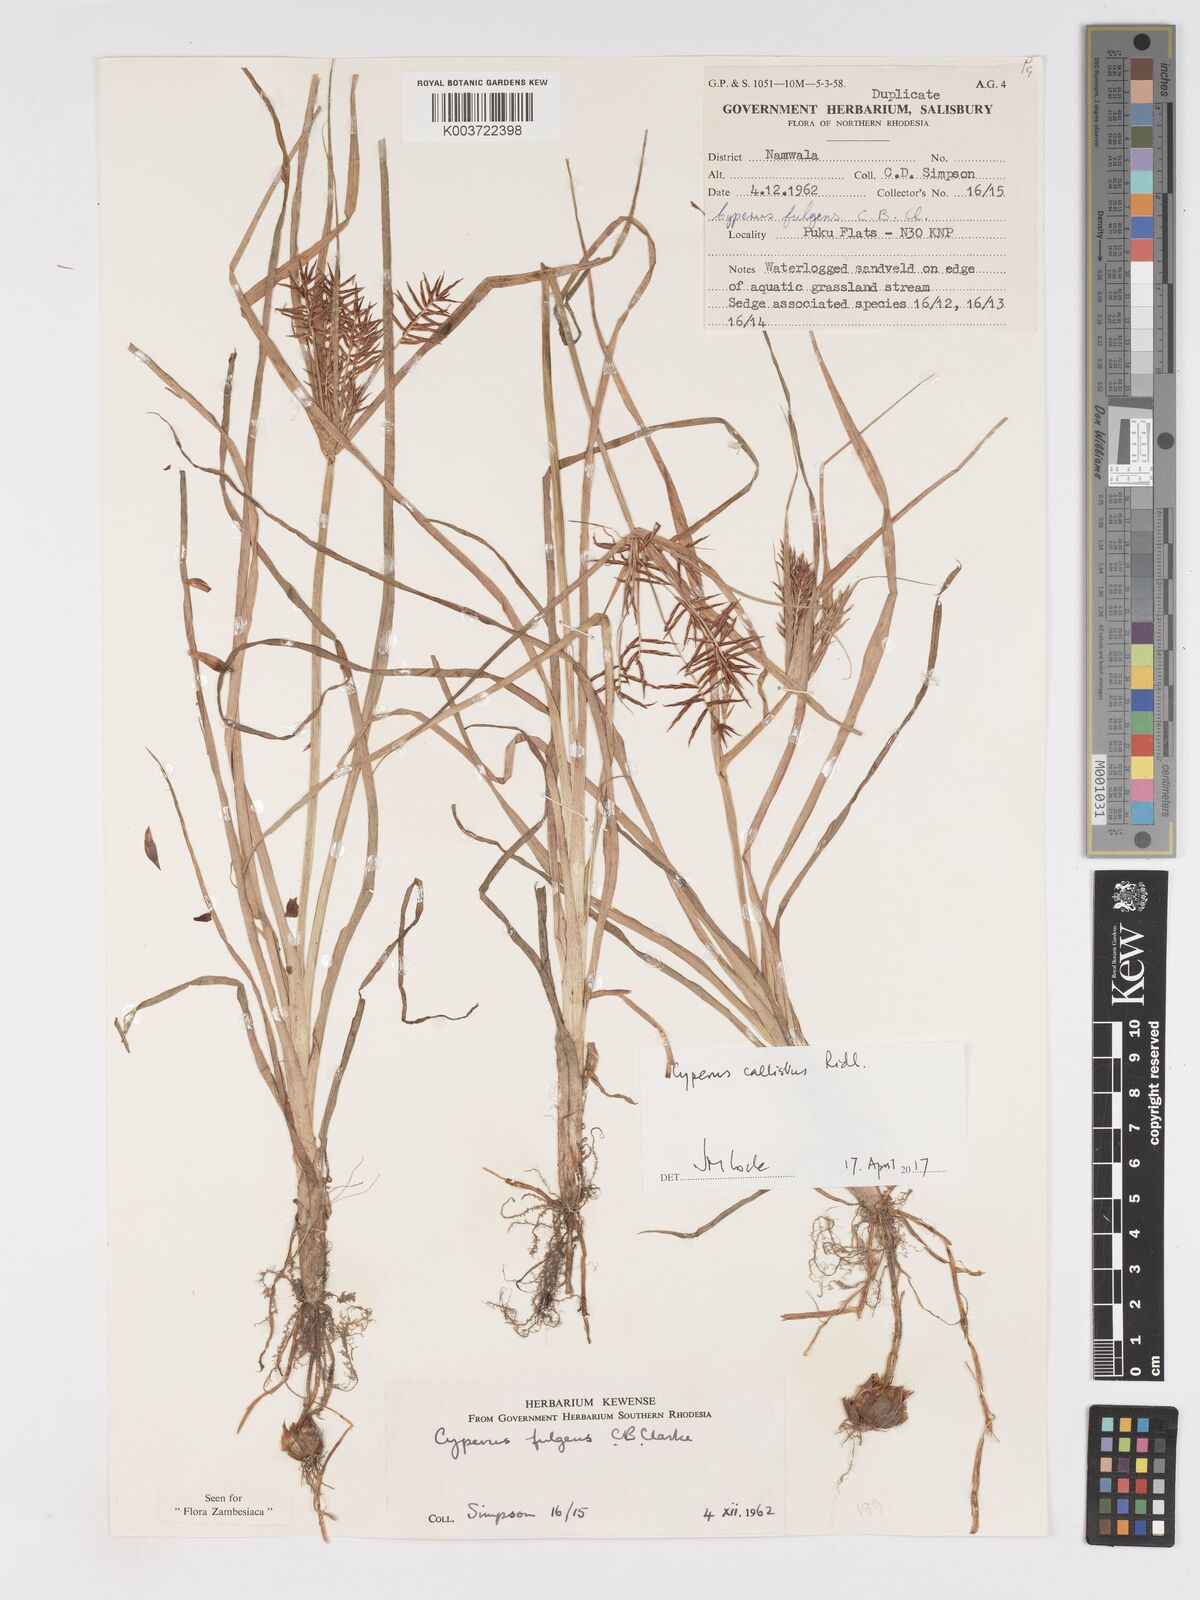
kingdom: Plantae
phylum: Tracheophyta
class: Liliopsida
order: Poales
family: Cyperaceae
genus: Cyperus
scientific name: Cyperus callistus
